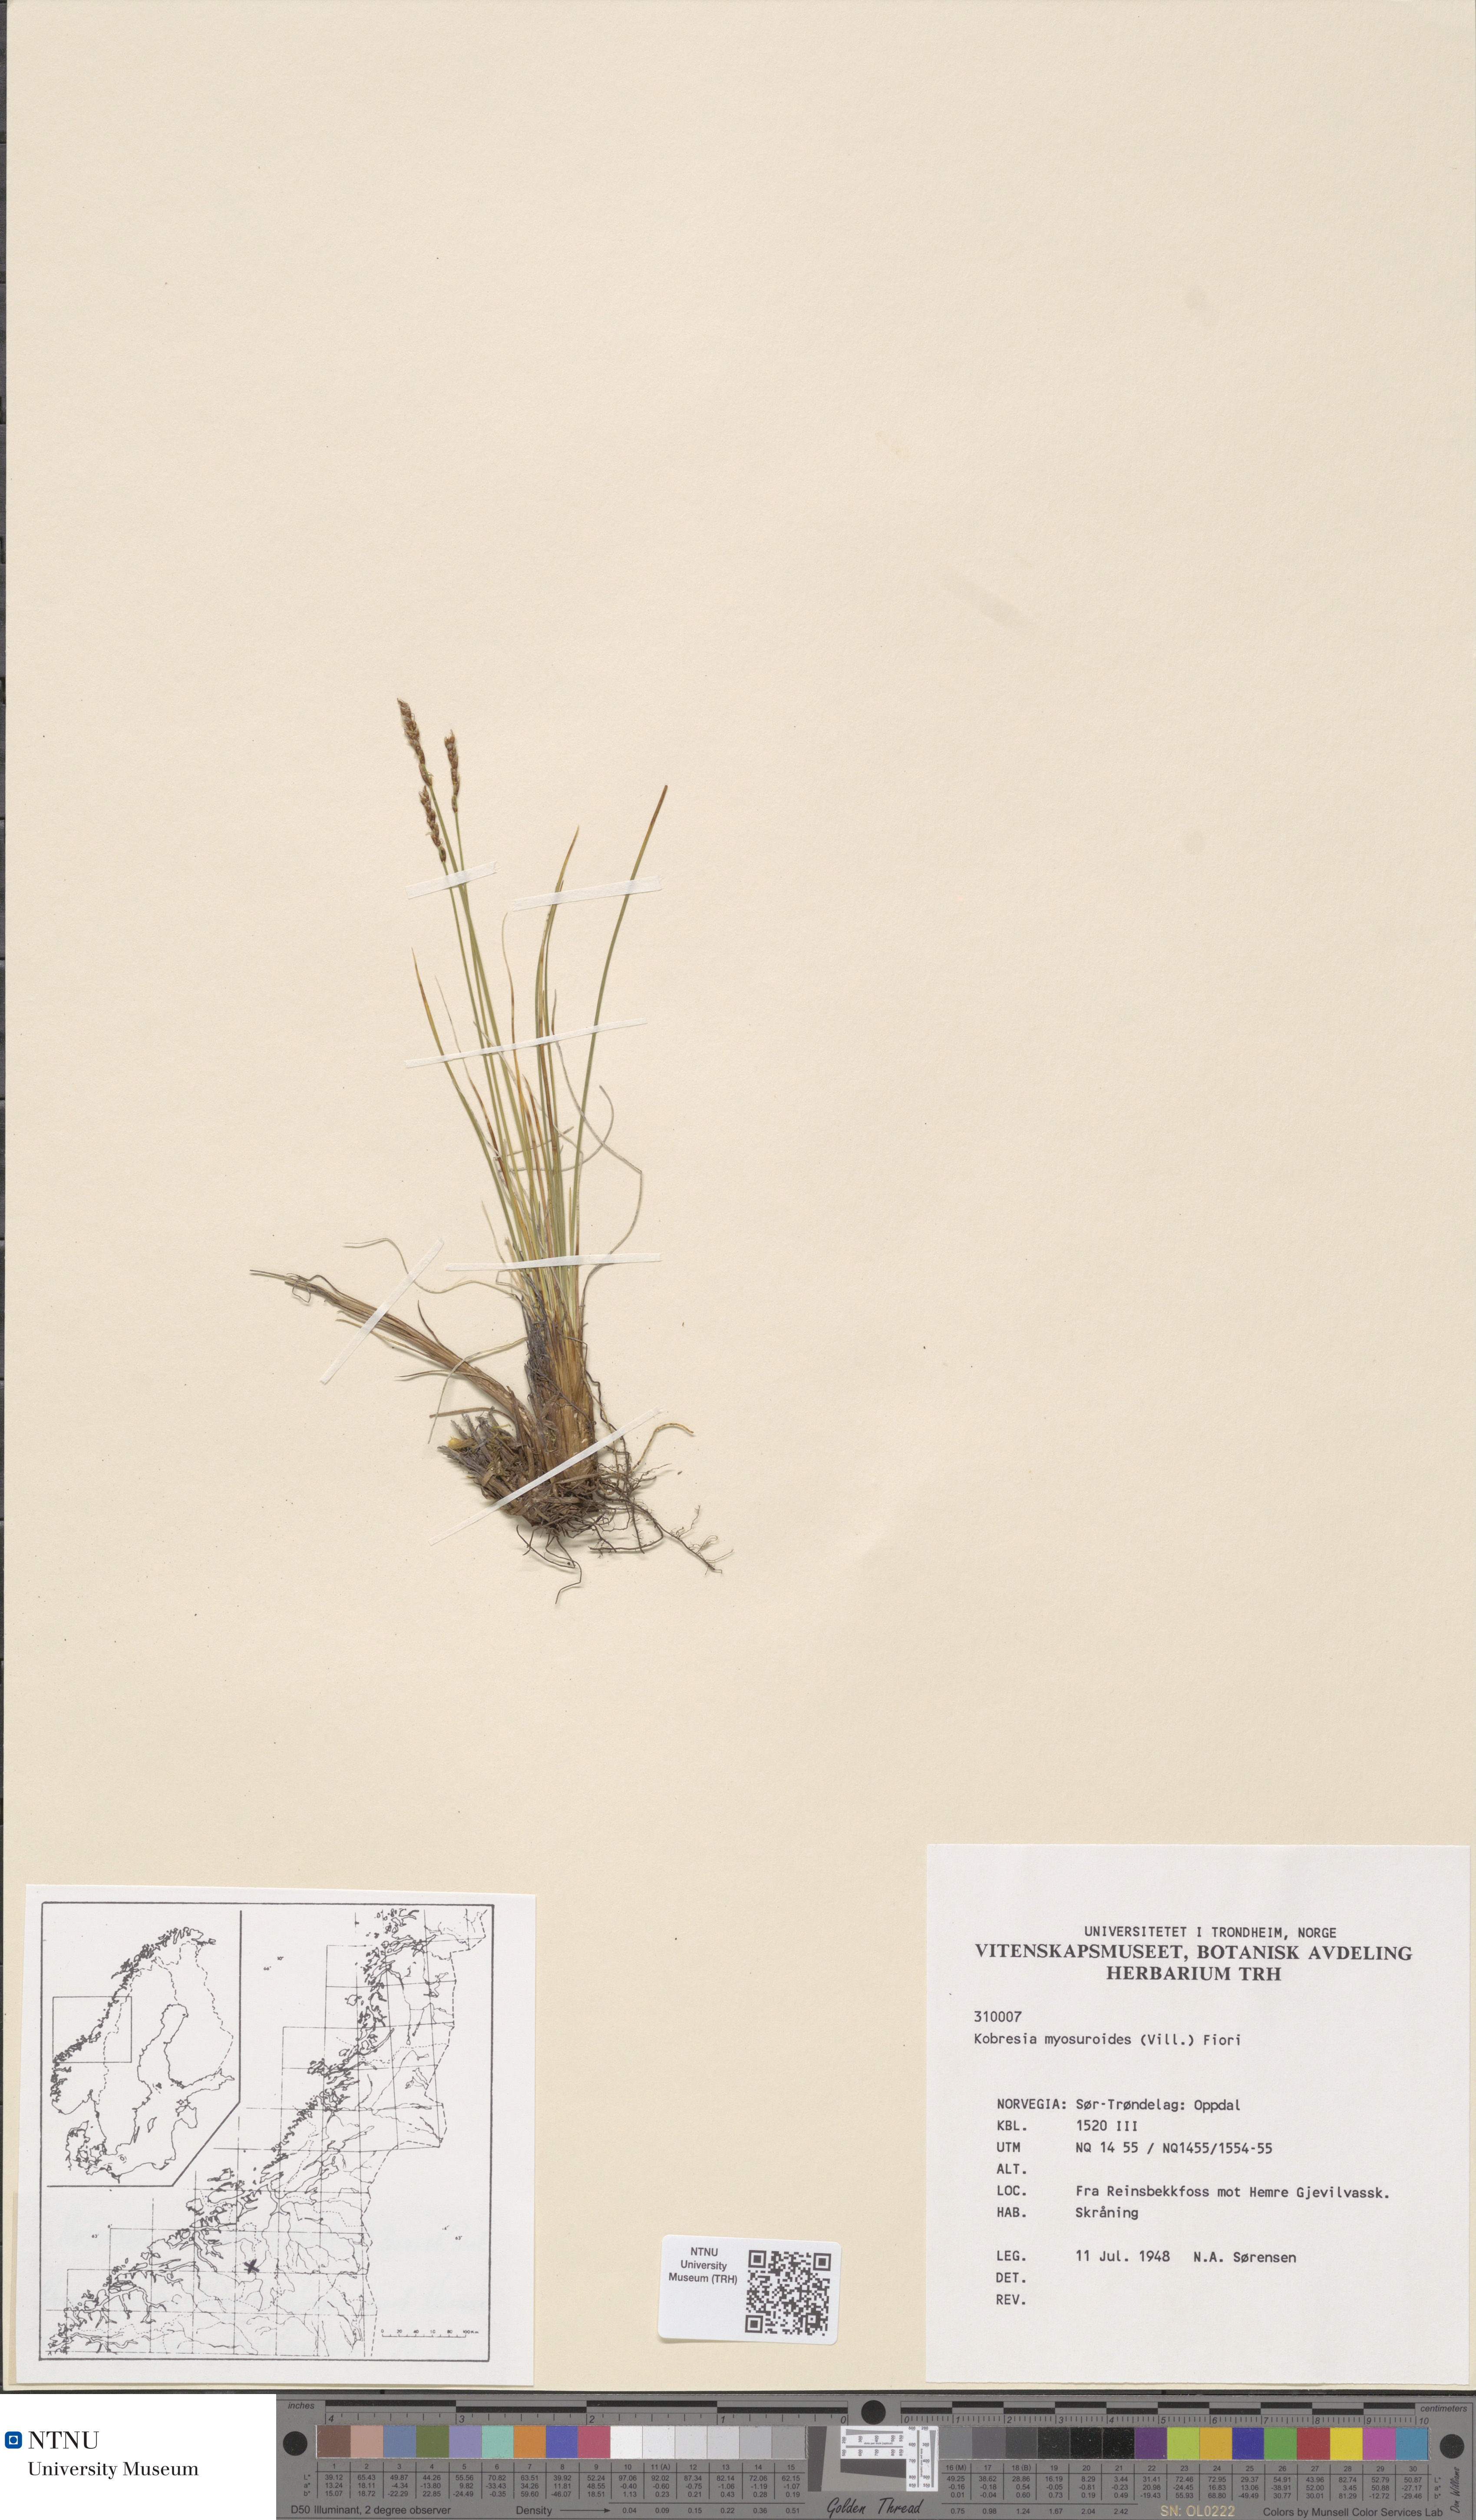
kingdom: Plantae
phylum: Tracheophyta
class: Liliopsida
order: Poales
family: Cyperaceae
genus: Carex
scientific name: Carex myosuroides
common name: Bellard's bog sedge
